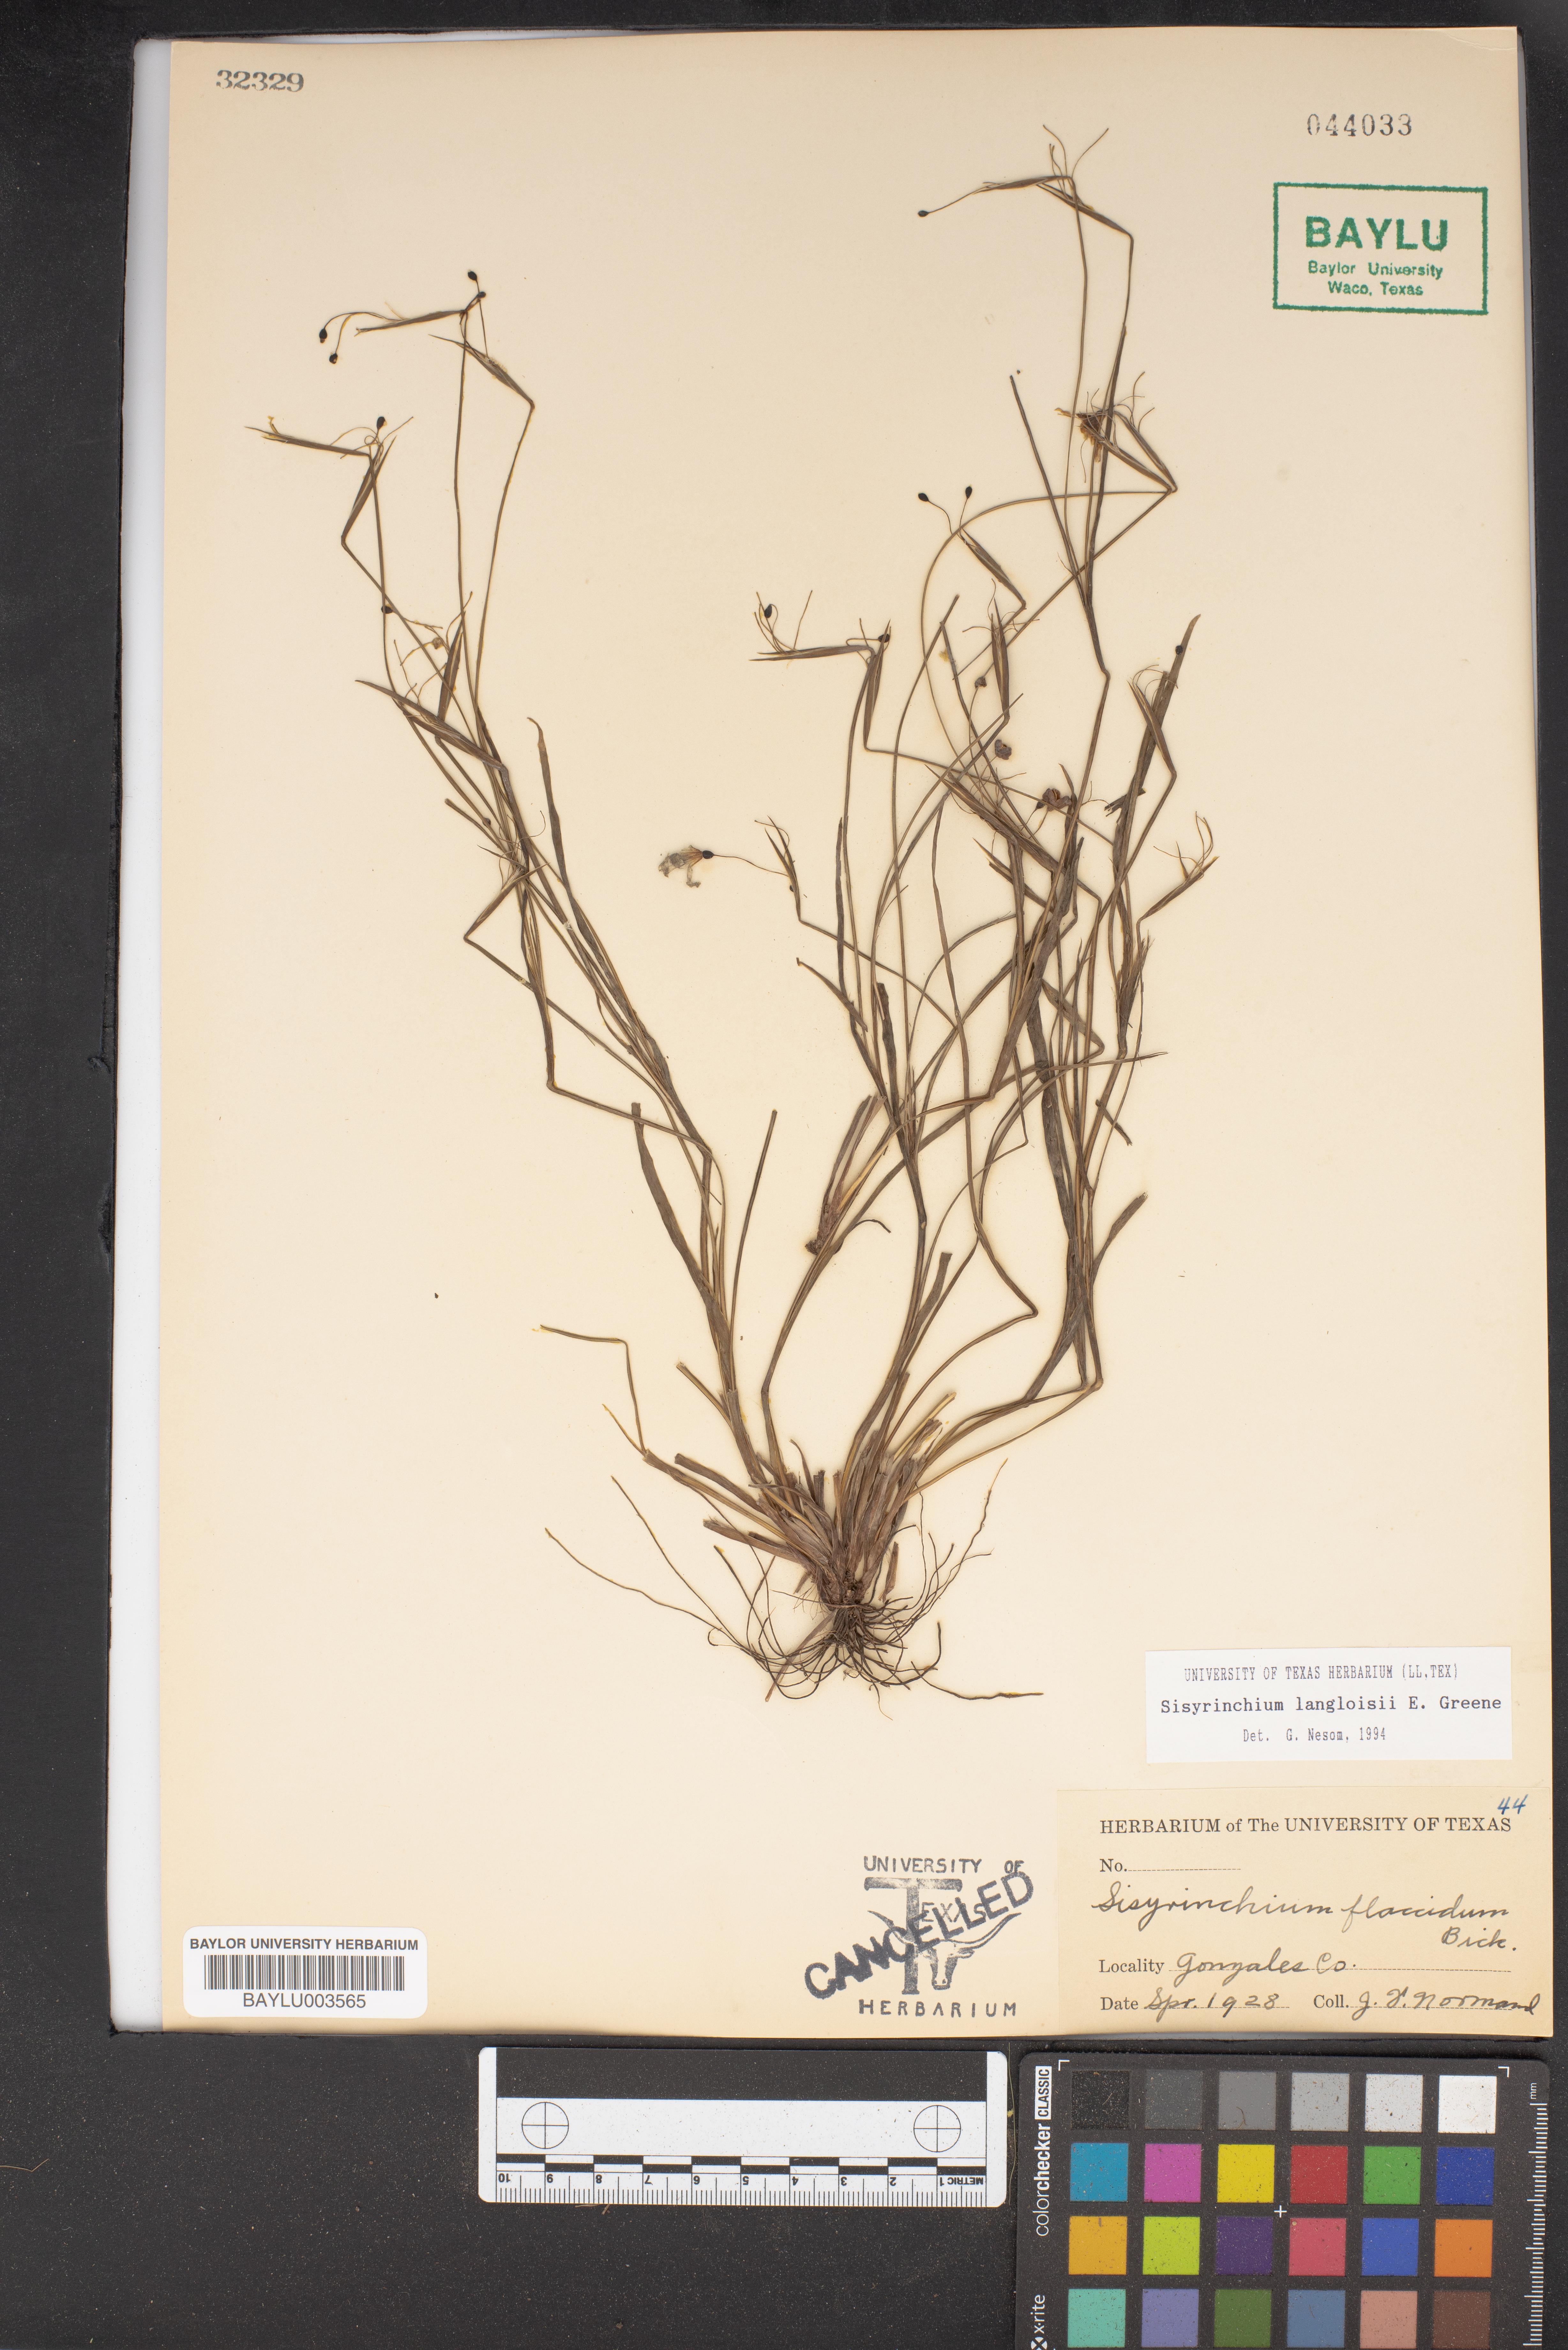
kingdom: Plantae
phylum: Tracheophyta
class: Liliopsida
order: Asparagales
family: Iridaceae
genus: Sisyrinchium
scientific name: Sisyrinchium langloisii
